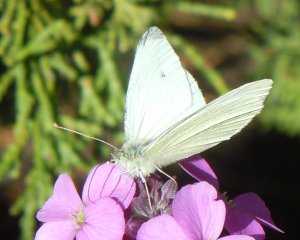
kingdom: Animalia
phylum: Arthropoda
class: Insecta
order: Lepidoptera
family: Pieridae
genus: Pieris
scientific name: Pieris rapae
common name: Cabbage White
